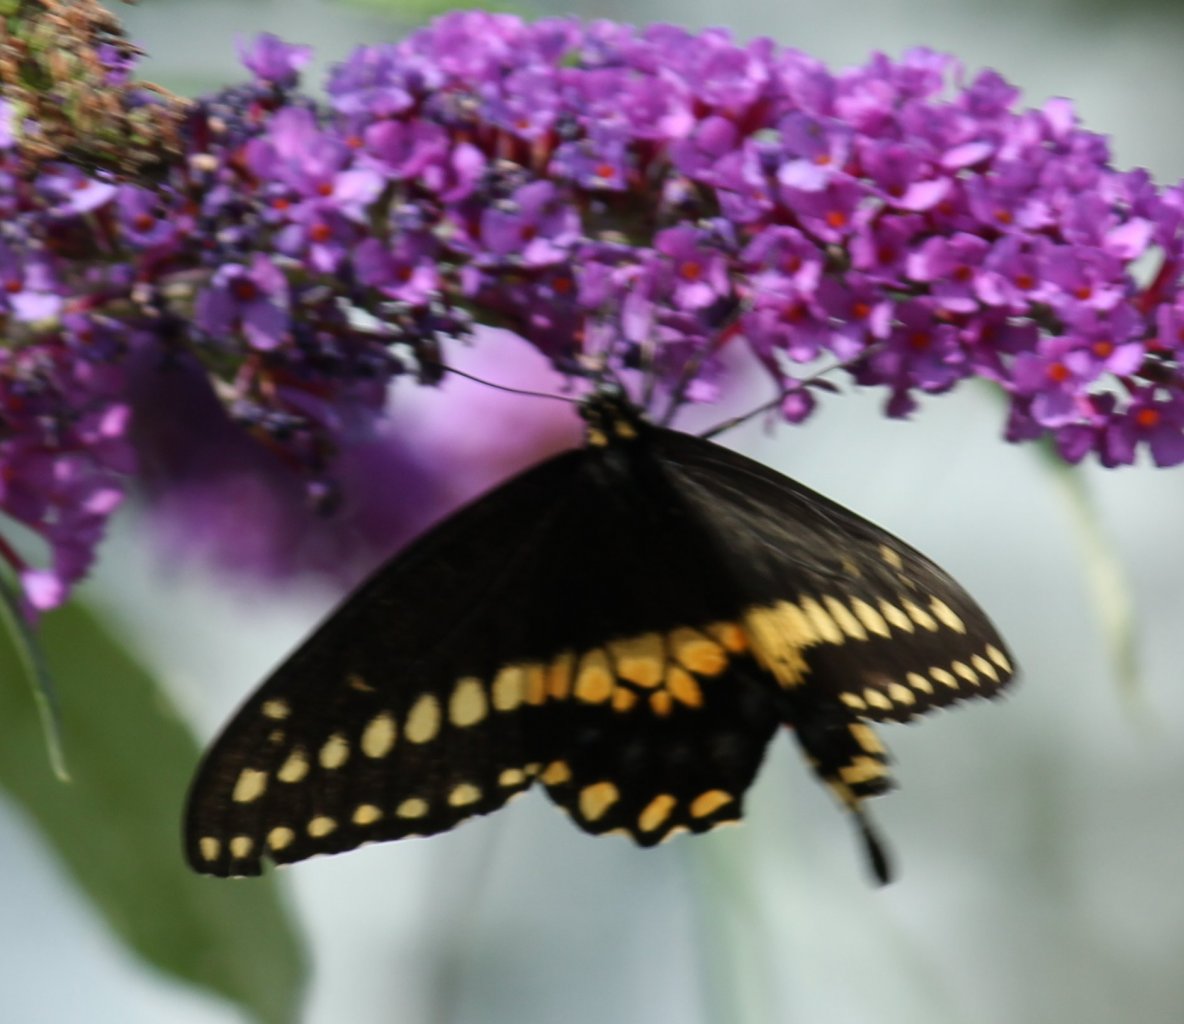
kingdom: Animalia
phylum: Arthropoda
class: Insecta
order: Lepidoptera
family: Papilionidae
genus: Papilio
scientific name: Papilio polyxenes
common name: Black Swallowtail
